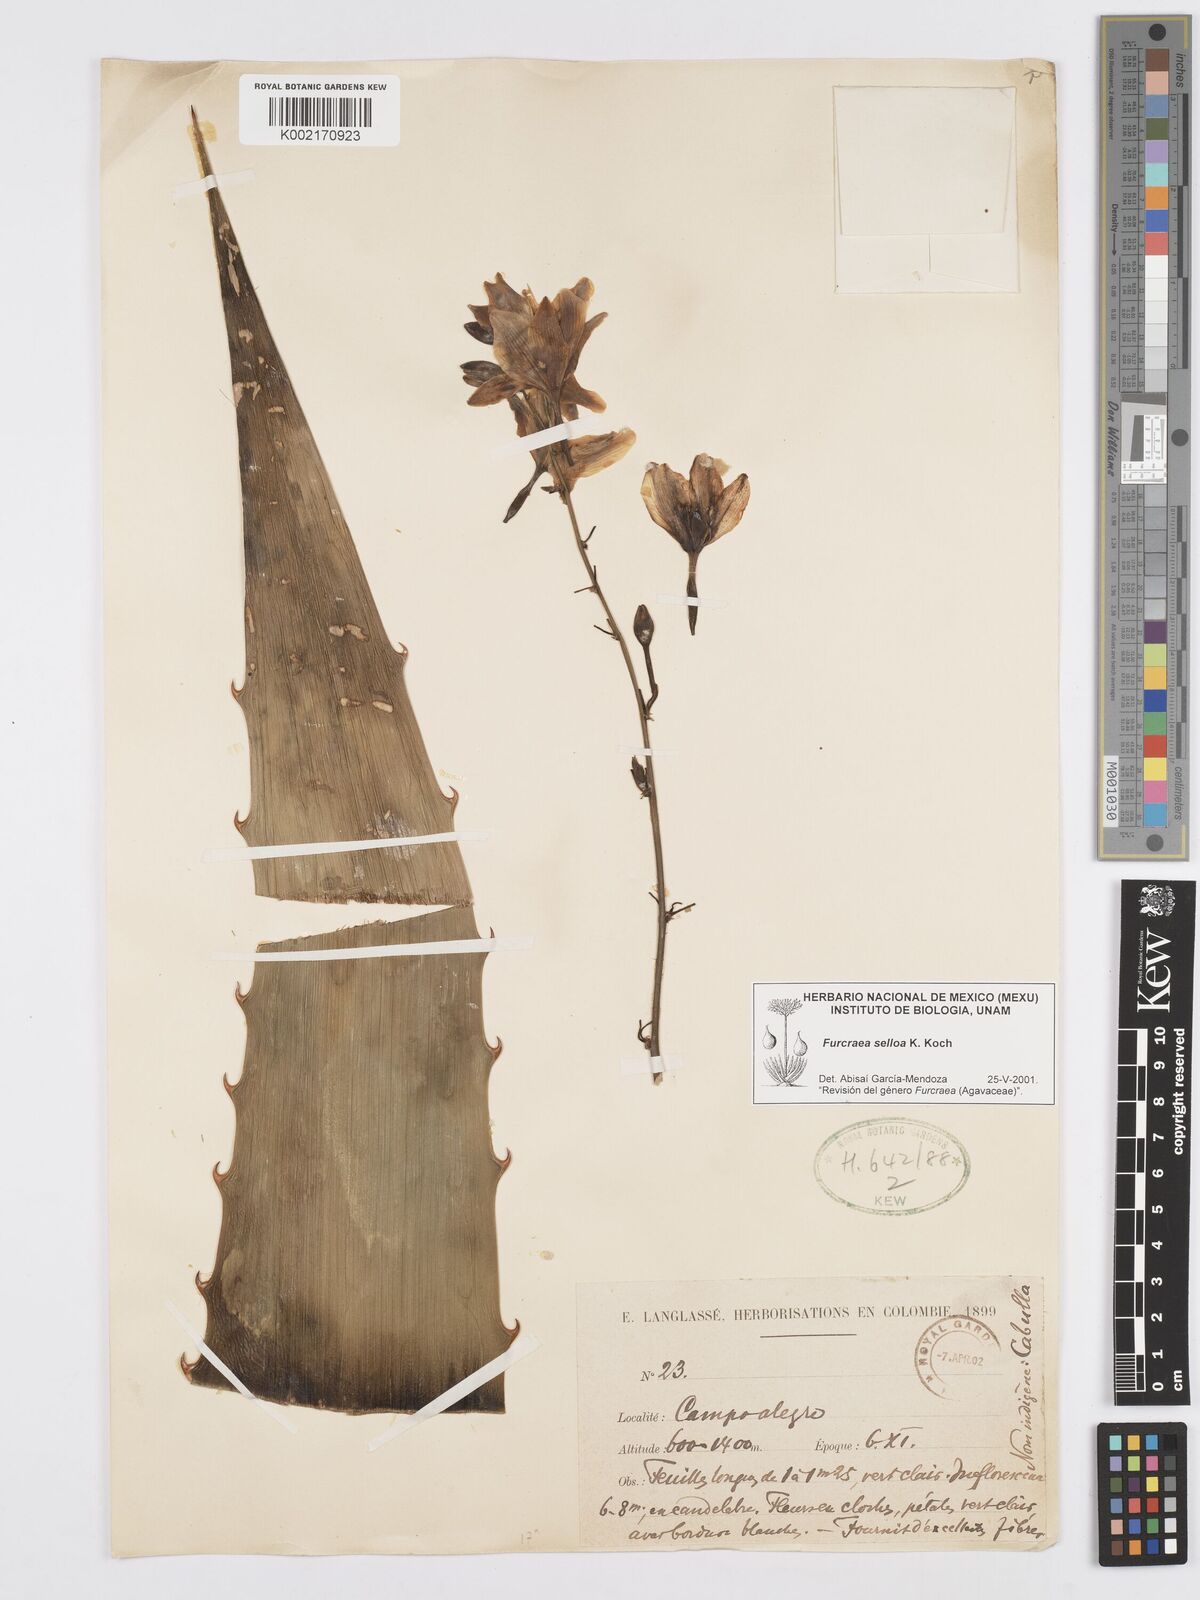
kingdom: Plantae
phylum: Tracheophyta
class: Liliopsida
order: Asparagales
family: Asparagaceae
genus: Furcraea
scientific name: Furcraea selloana
